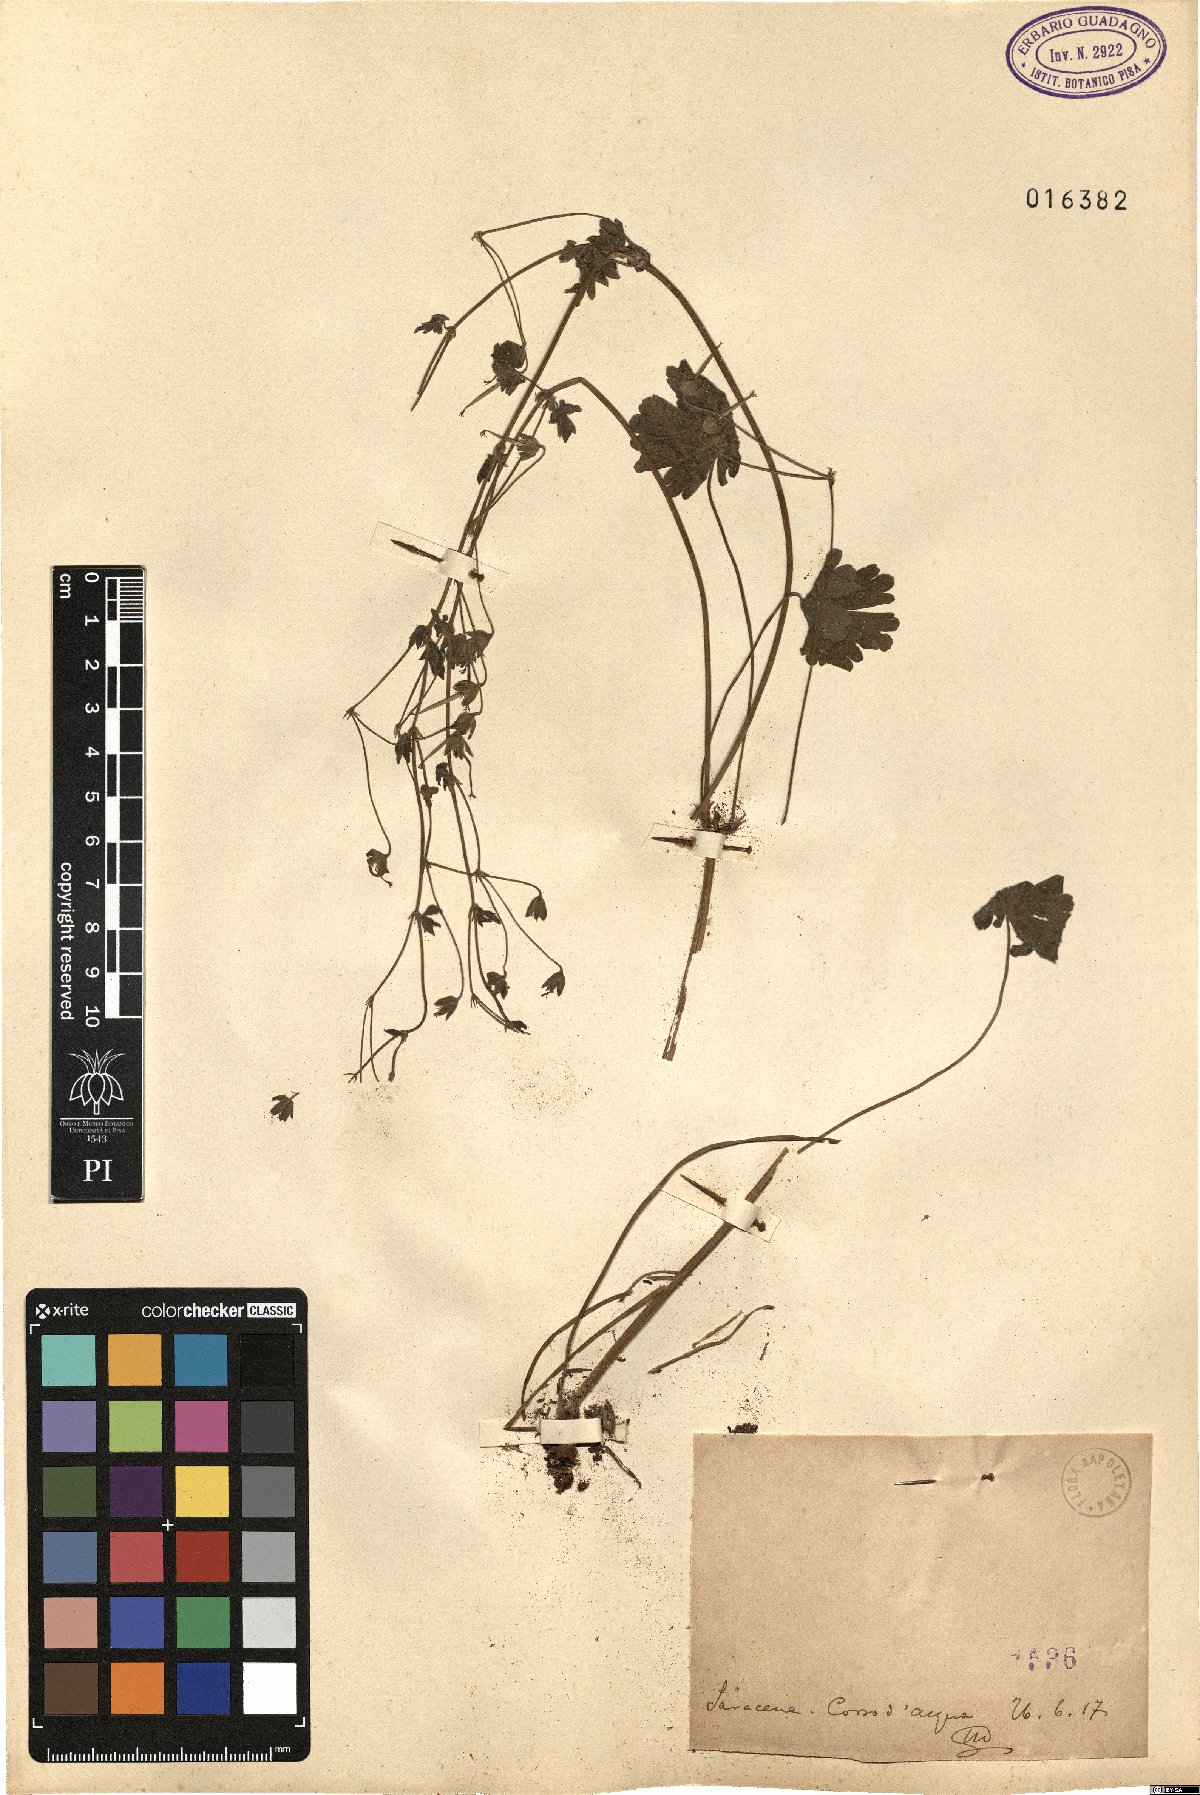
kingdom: Plantae
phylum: Tracheophyta
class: Magnoliopsida
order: Geraniales
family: Geraniaceae
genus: Geranium
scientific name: Geranium
